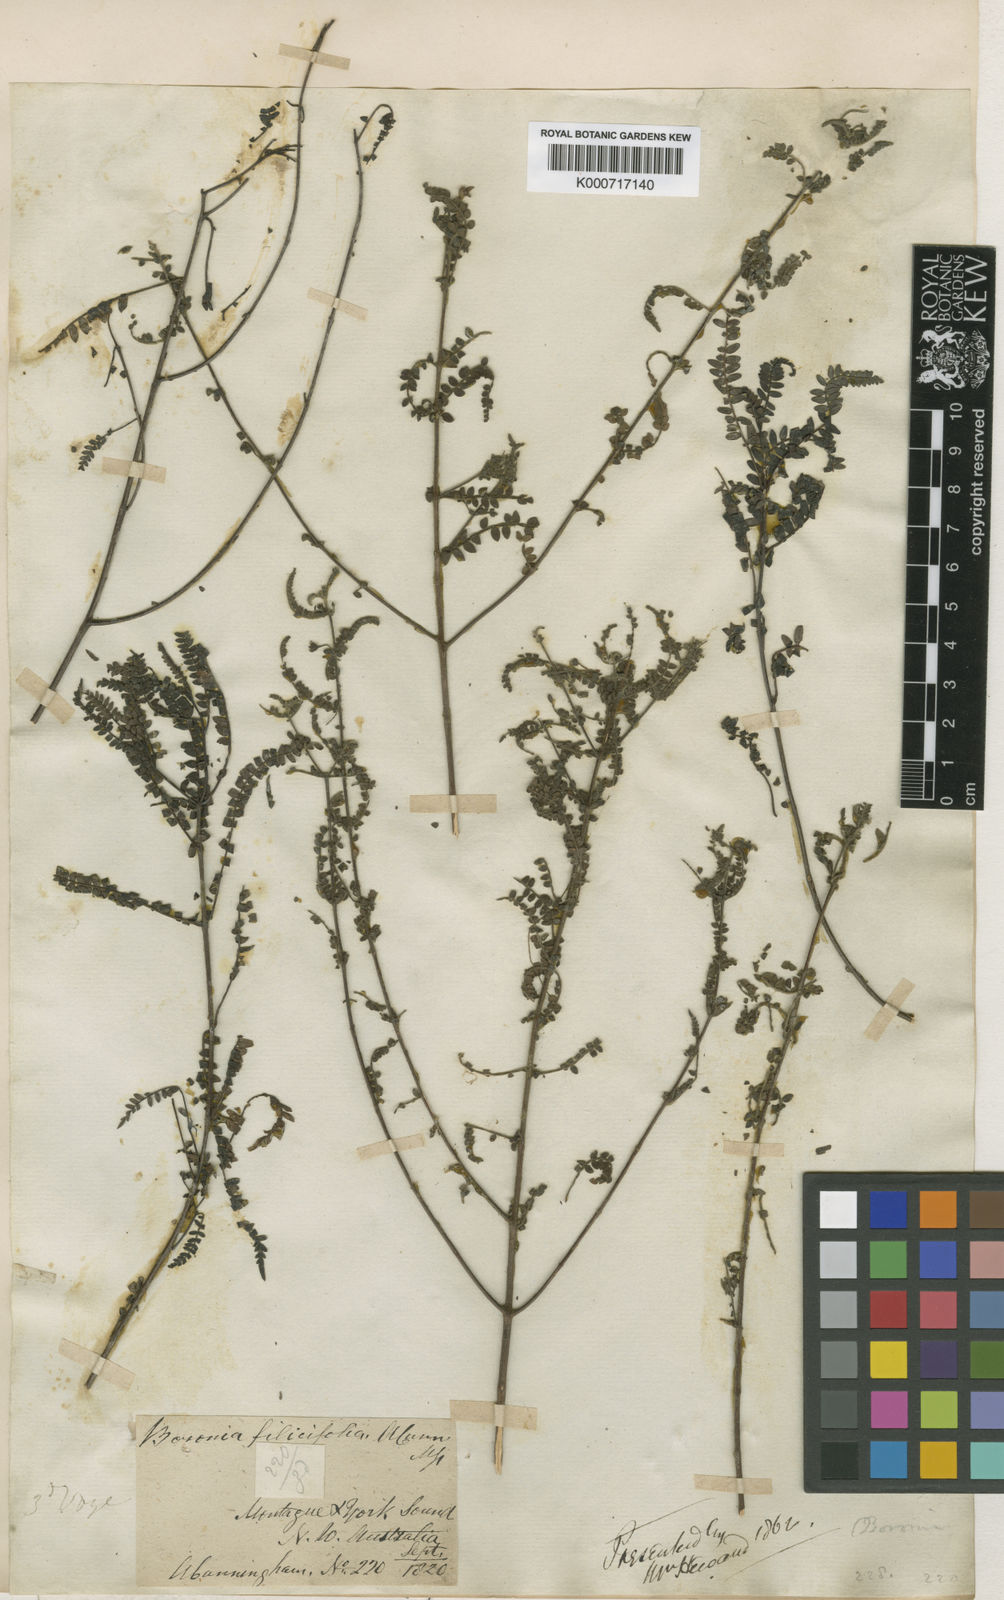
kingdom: Plantae
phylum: Tracheophyta
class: Magnoliopsida
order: Sapindales
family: Rutaceae
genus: Boronia
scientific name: Boronia filicifolia
